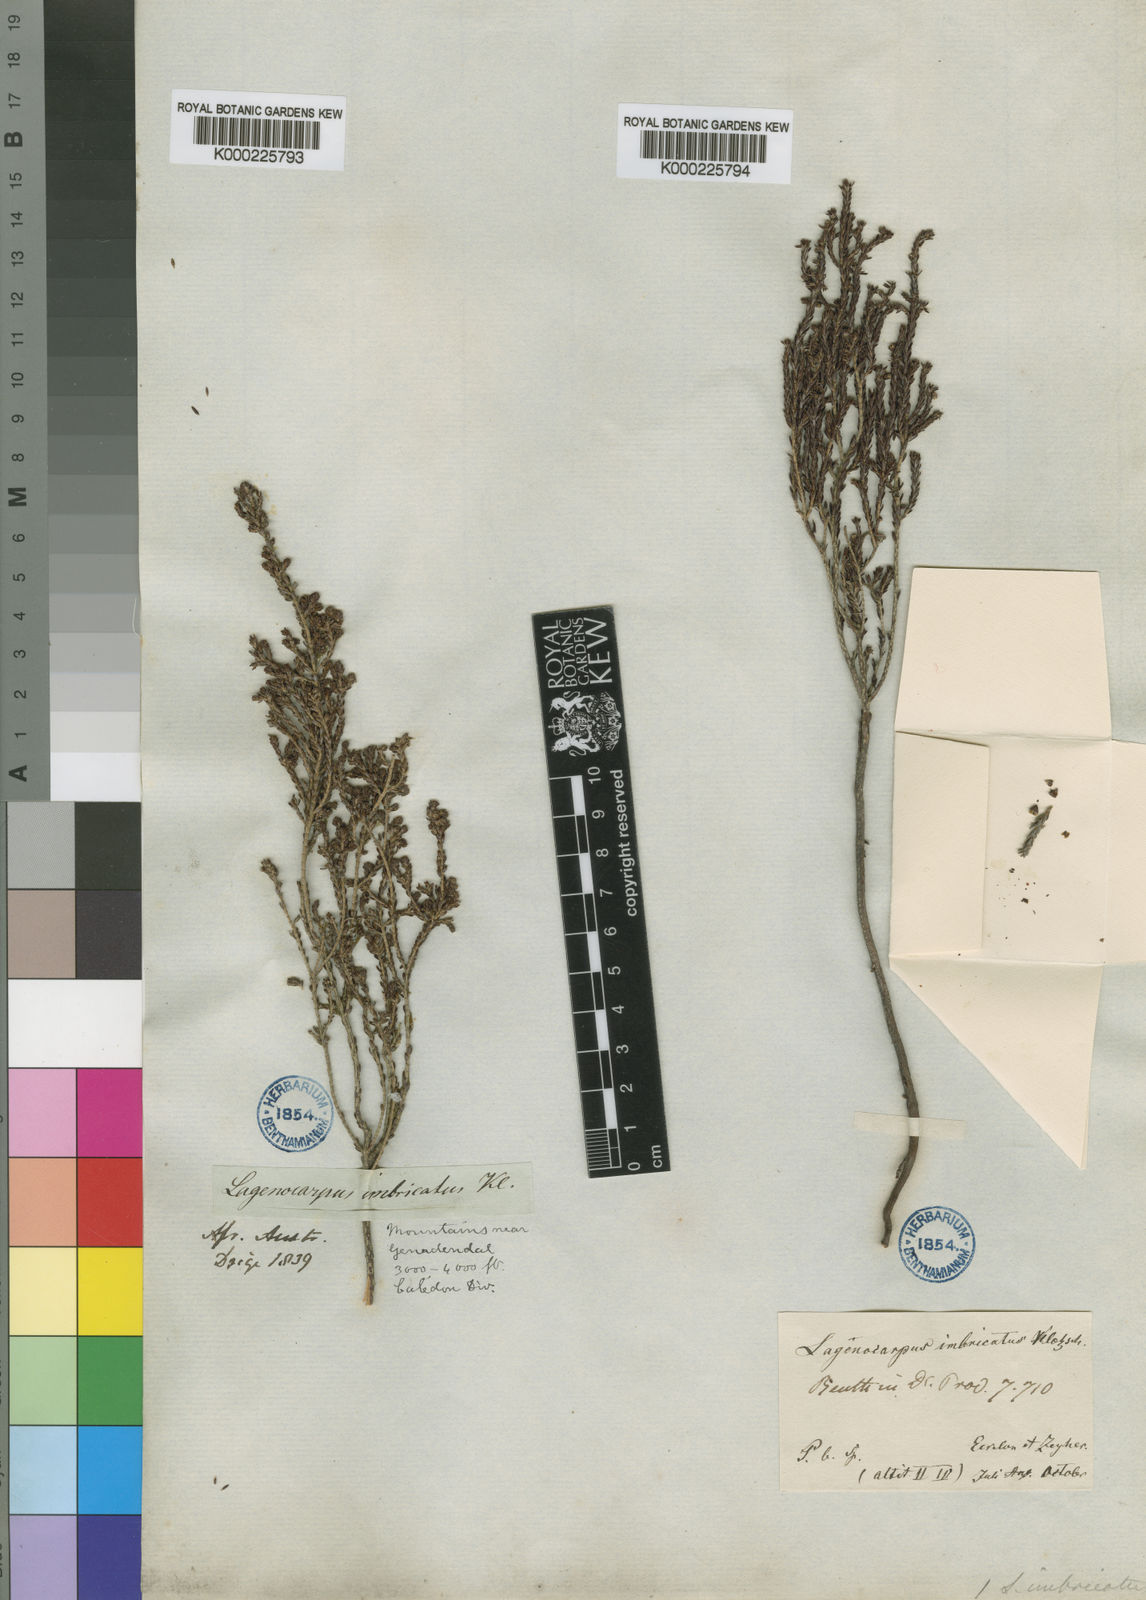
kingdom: Plantae
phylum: Tracheophyta
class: Magnoliopsida
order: Ericales
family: Ericaceae
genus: Erica
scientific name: Erica
